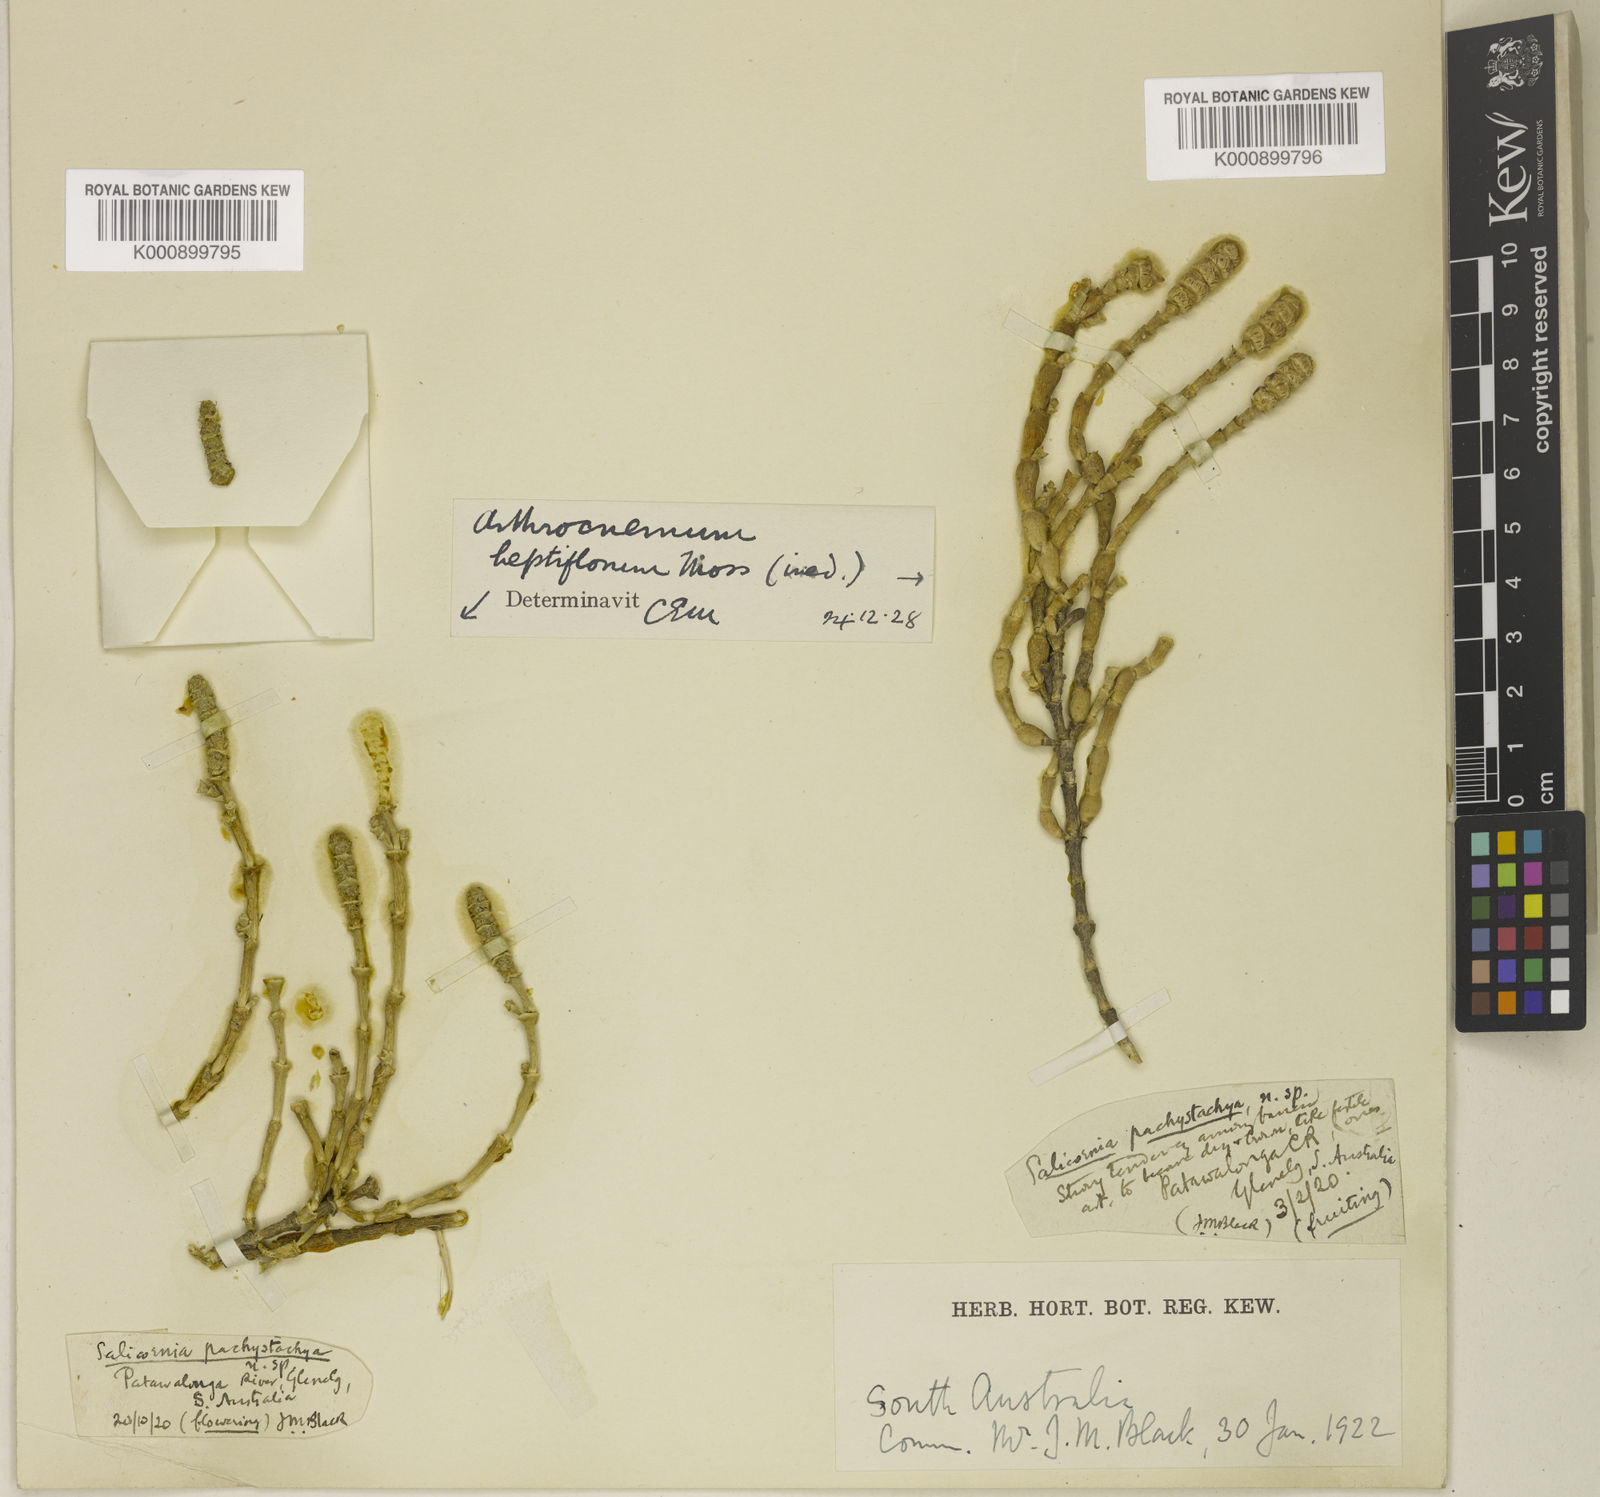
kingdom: Plantae
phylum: Tracheophyta
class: Magnoliopsida
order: Caryophyllales
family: Amaranthaceae
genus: Salicornia
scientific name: Salicornia blackiana
